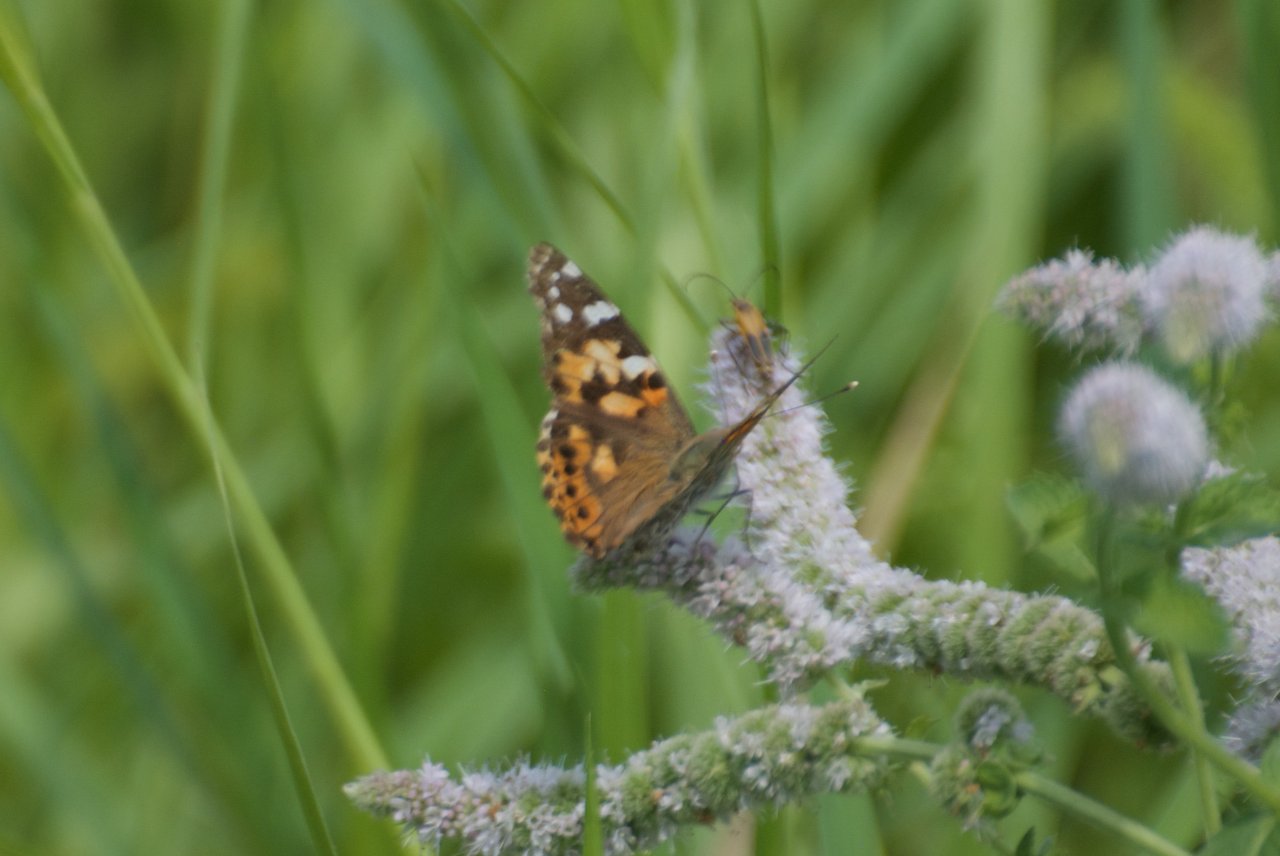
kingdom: Animalia
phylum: Arthropoda
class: Insecta
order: Lepidoptera
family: Nymphalidae
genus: Vanessa
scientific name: Vanessa cardui
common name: Painted Lady
